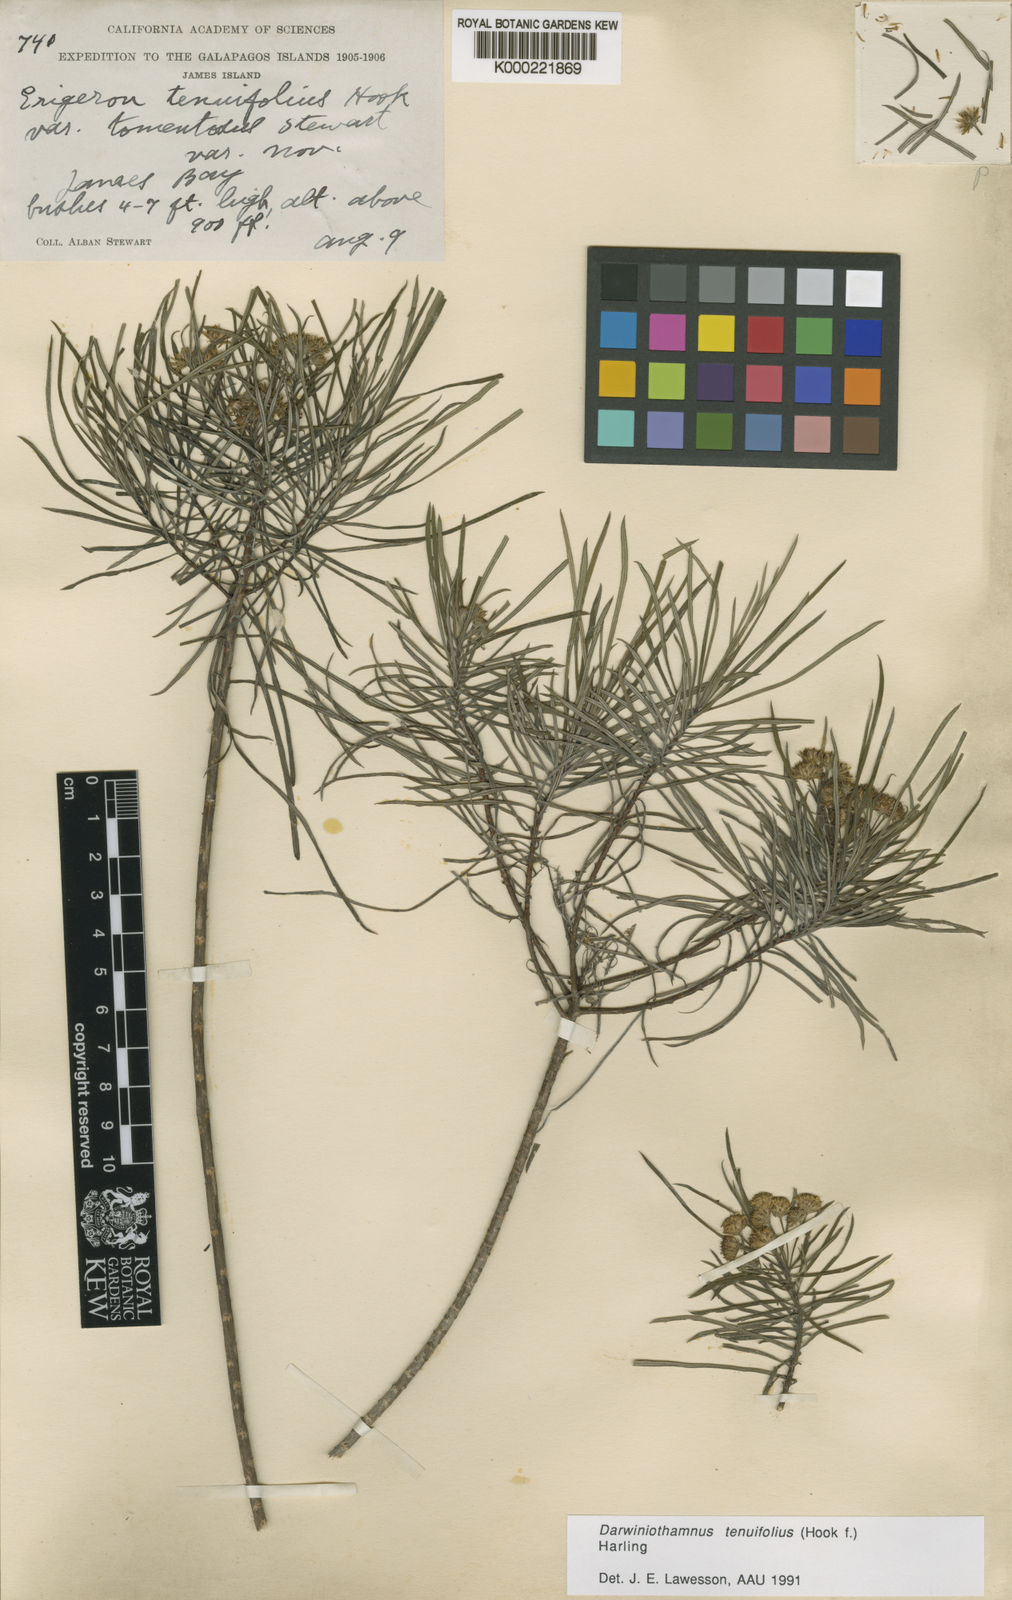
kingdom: Plantae
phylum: Tracheophyta
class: Magnoliopsida
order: Asterales
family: Asteraceae
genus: Erigeron
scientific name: Erigeron tenuifolius
